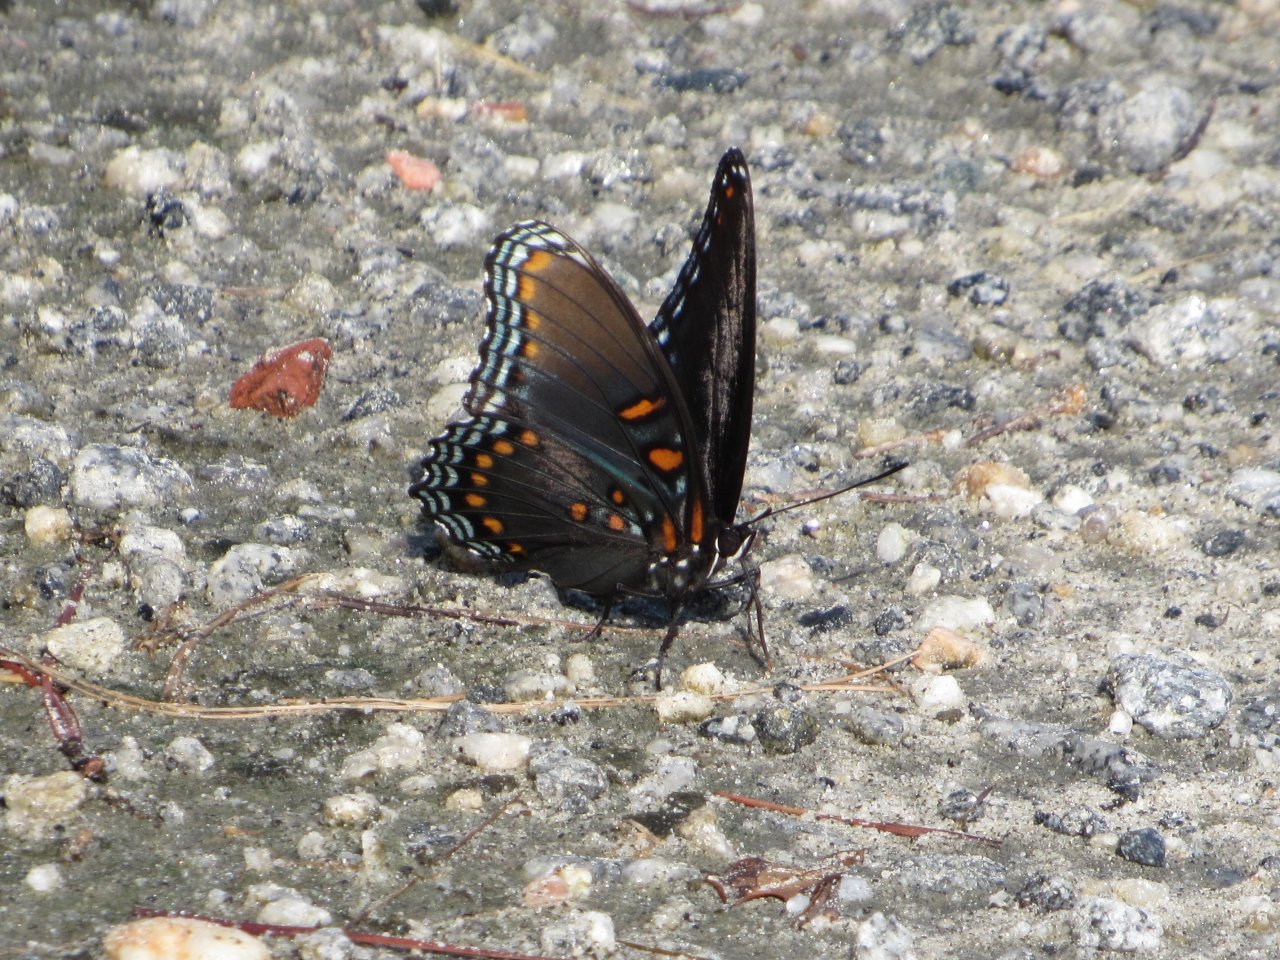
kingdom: Animalia
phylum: Arthropoda
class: Insecta
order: Lepidoptera
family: Nymphalidae
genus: Limenitis
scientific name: Limenitis astyanax
